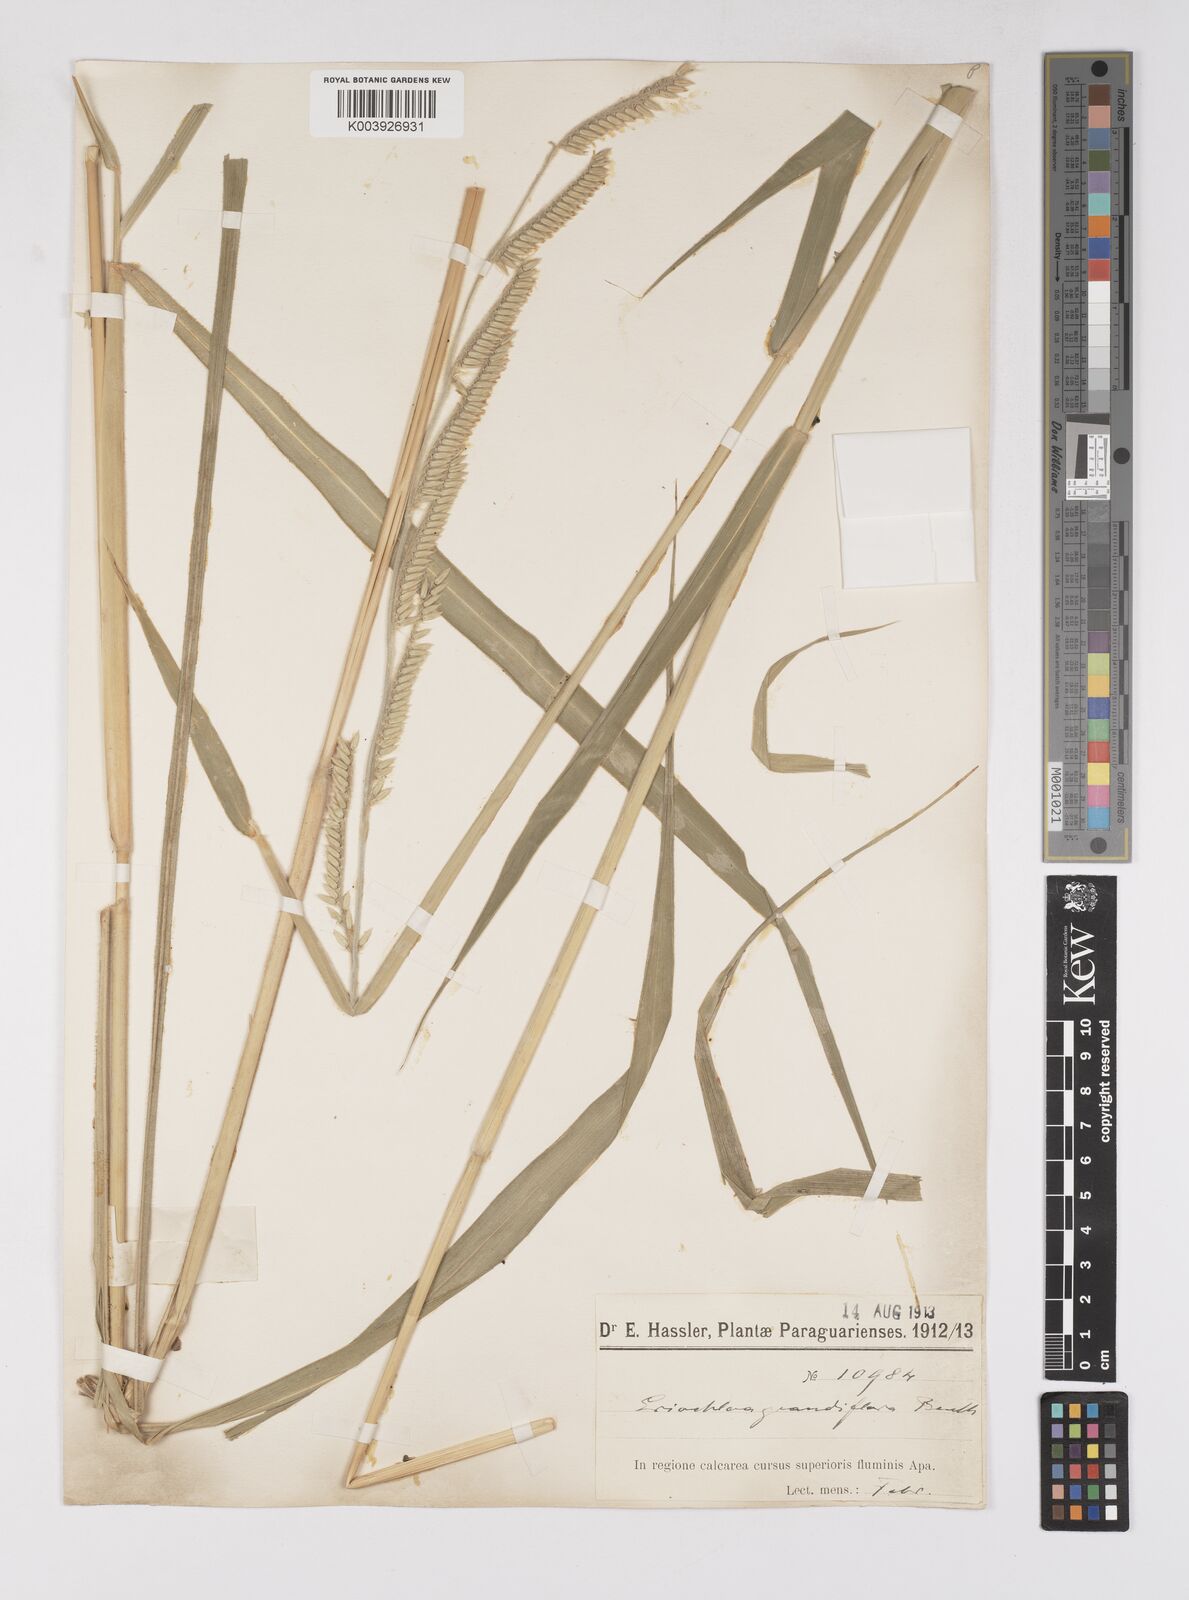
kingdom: Plantae
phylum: Tracheophyta
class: Liliopsida
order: Poales
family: Poaceae
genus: Eriochloa
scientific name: Eriochloa grandiflora
